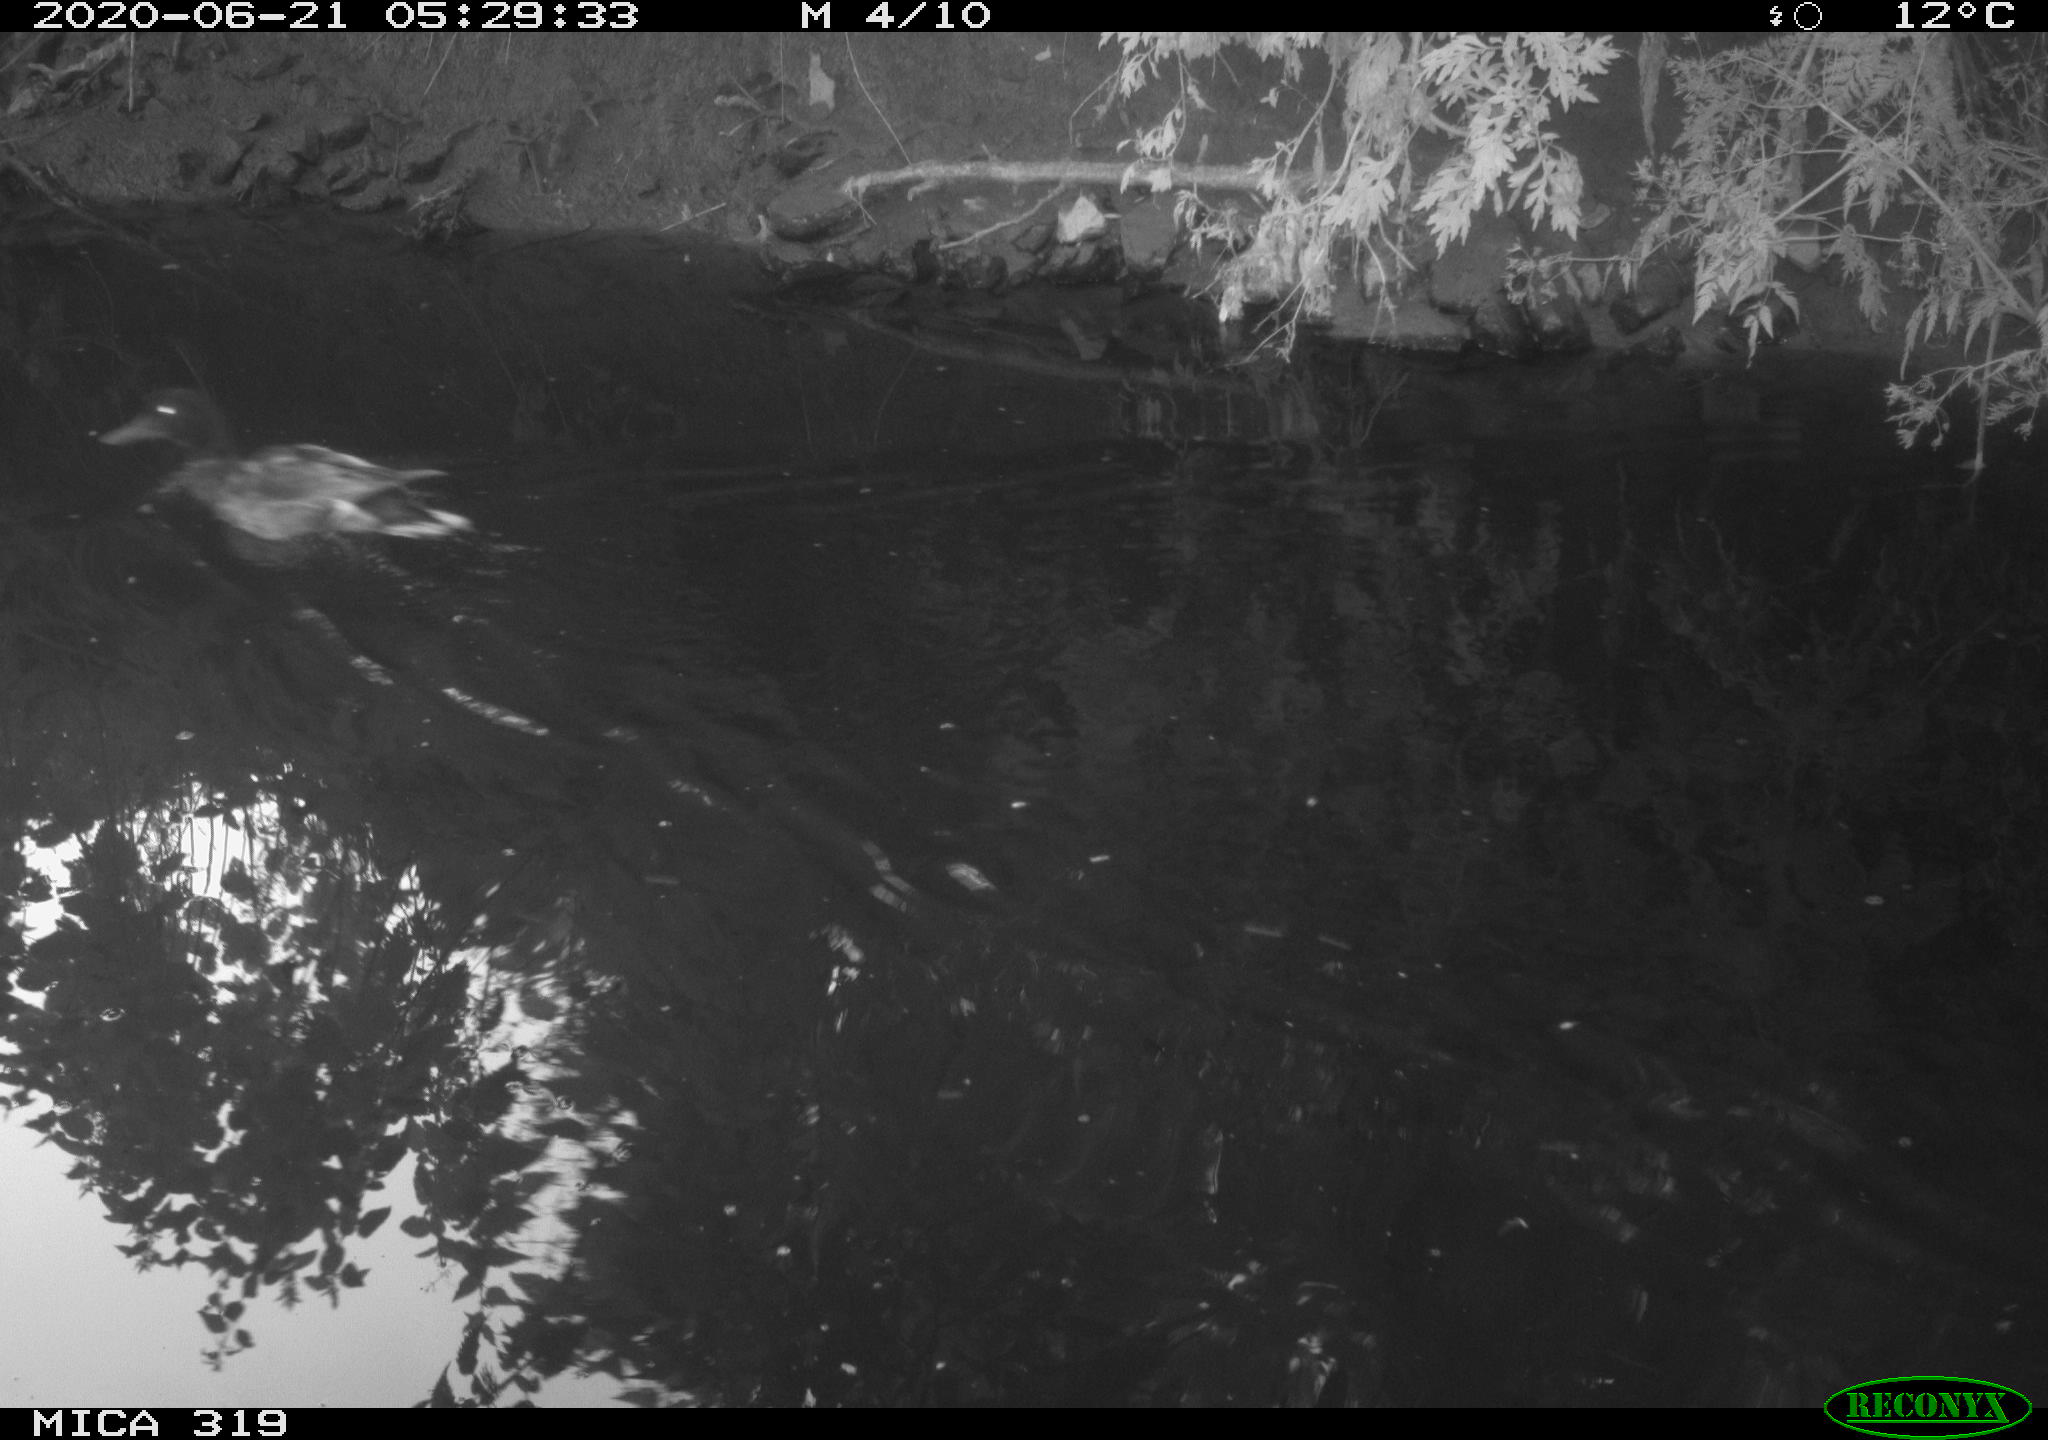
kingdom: Animalia
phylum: Chordata
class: Aves
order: Anseriformes
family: Anatidae
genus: Anas
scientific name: Anas platyrhynchos
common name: Mallard
